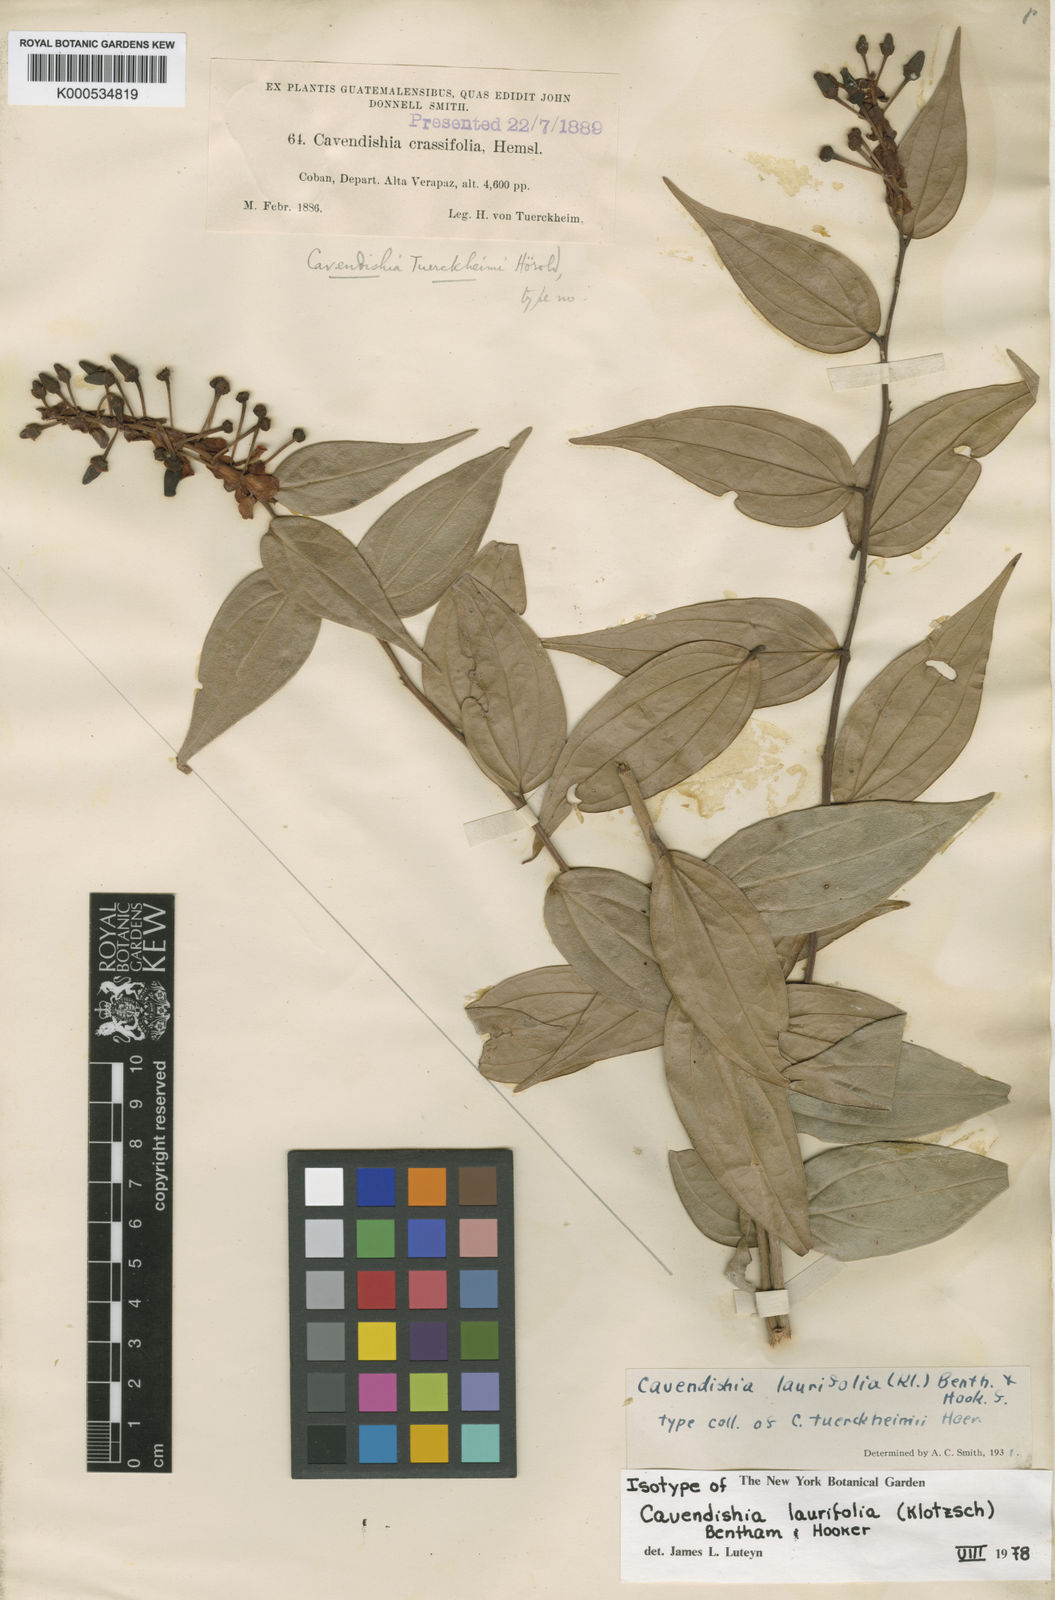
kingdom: Plantae
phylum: Tracheophyta
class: Magnoliopsida
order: Ericales
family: Ericaceae
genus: Cavendishia
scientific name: Cavendishia laurifolia
